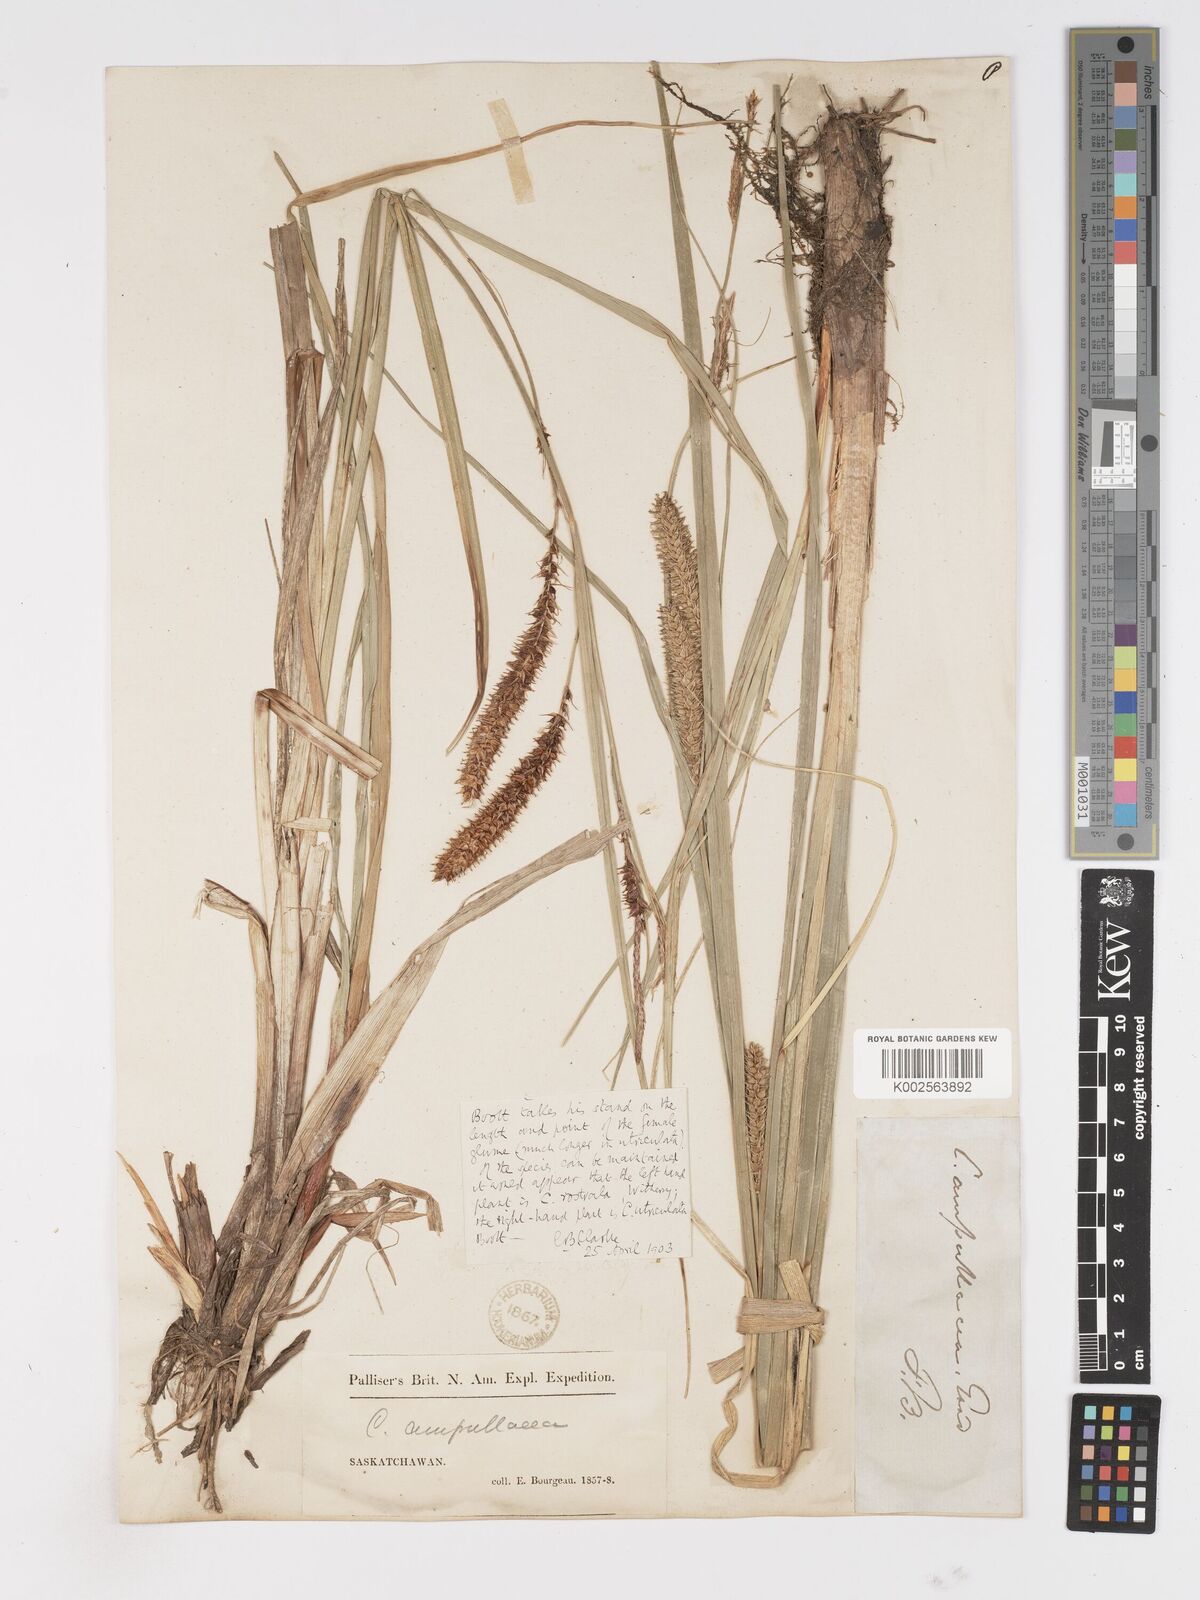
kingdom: Plantae
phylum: Tracheophyta
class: Liliopsida
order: Poales
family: Cyperaceae
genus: Carex
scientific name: Carex rostrata
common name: Bottle sedge
